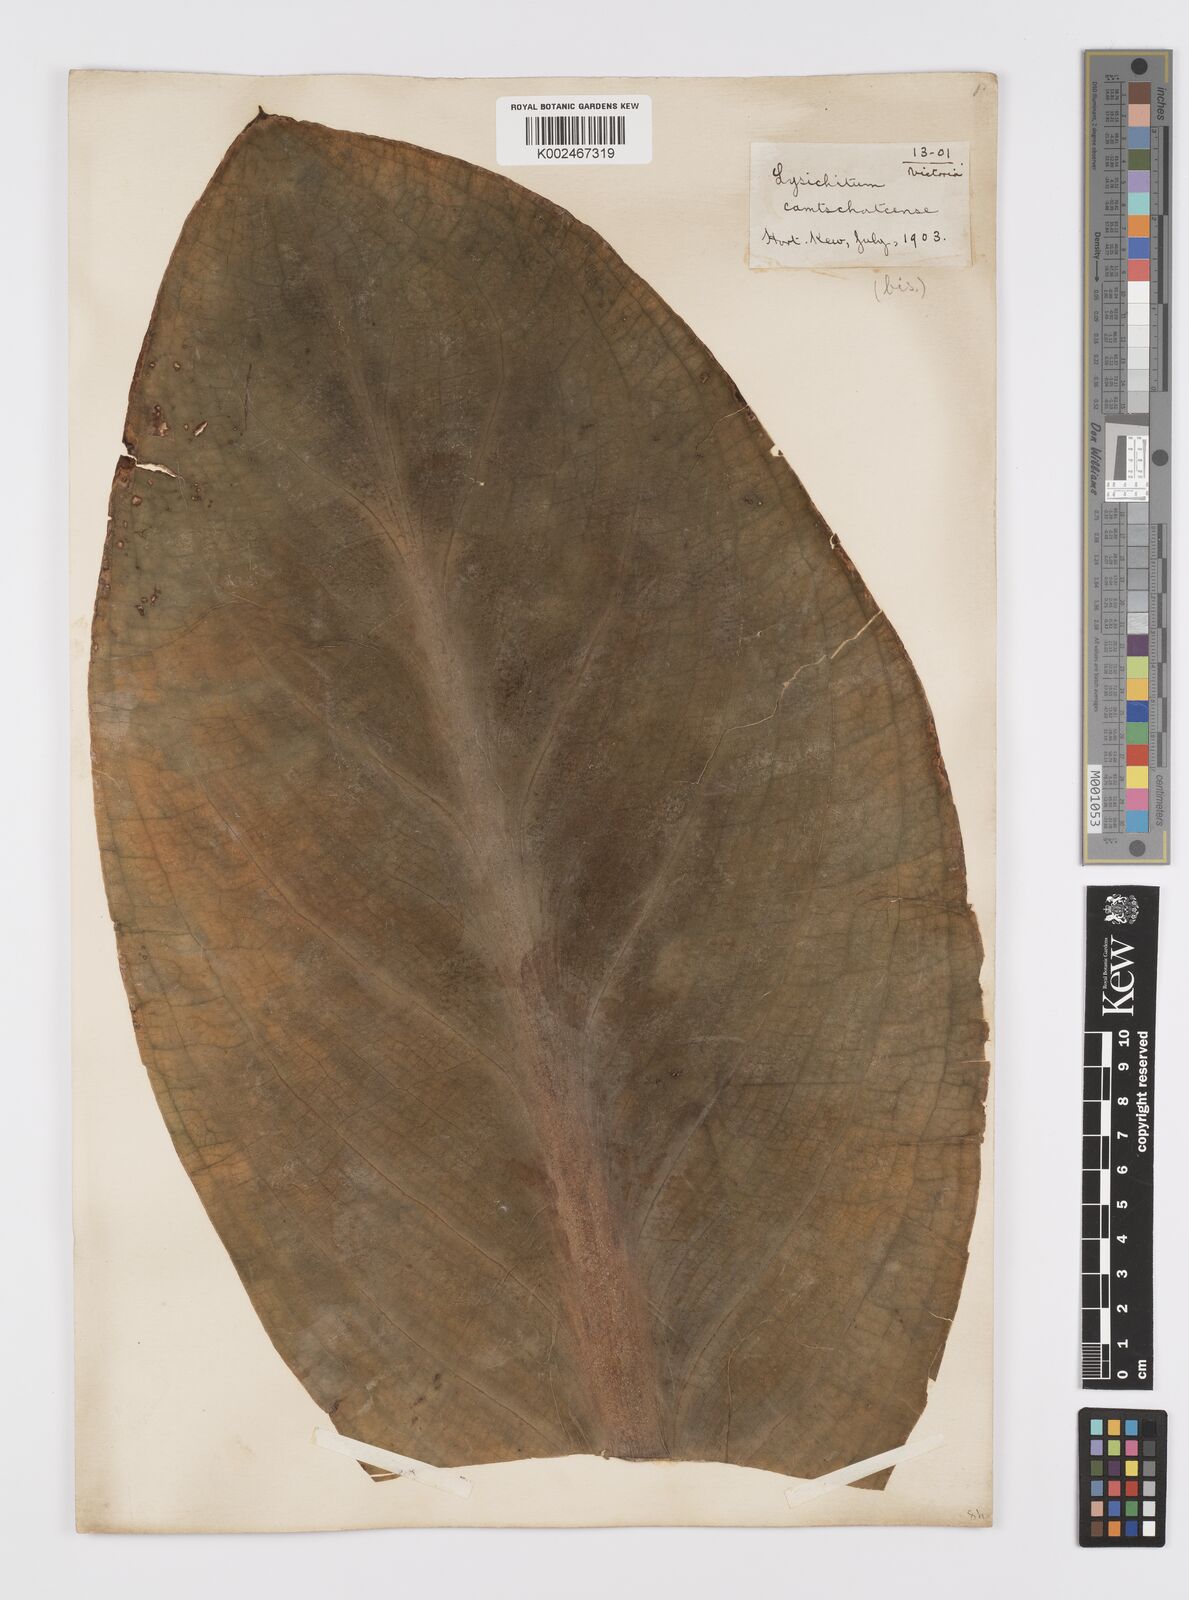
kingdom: Plantae
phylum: Tracheophyta
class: Liliopsida
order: Alismatales
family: Araceae
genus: Lysichiton
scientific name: Lysichiton americanus
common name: American skunk cabbage
